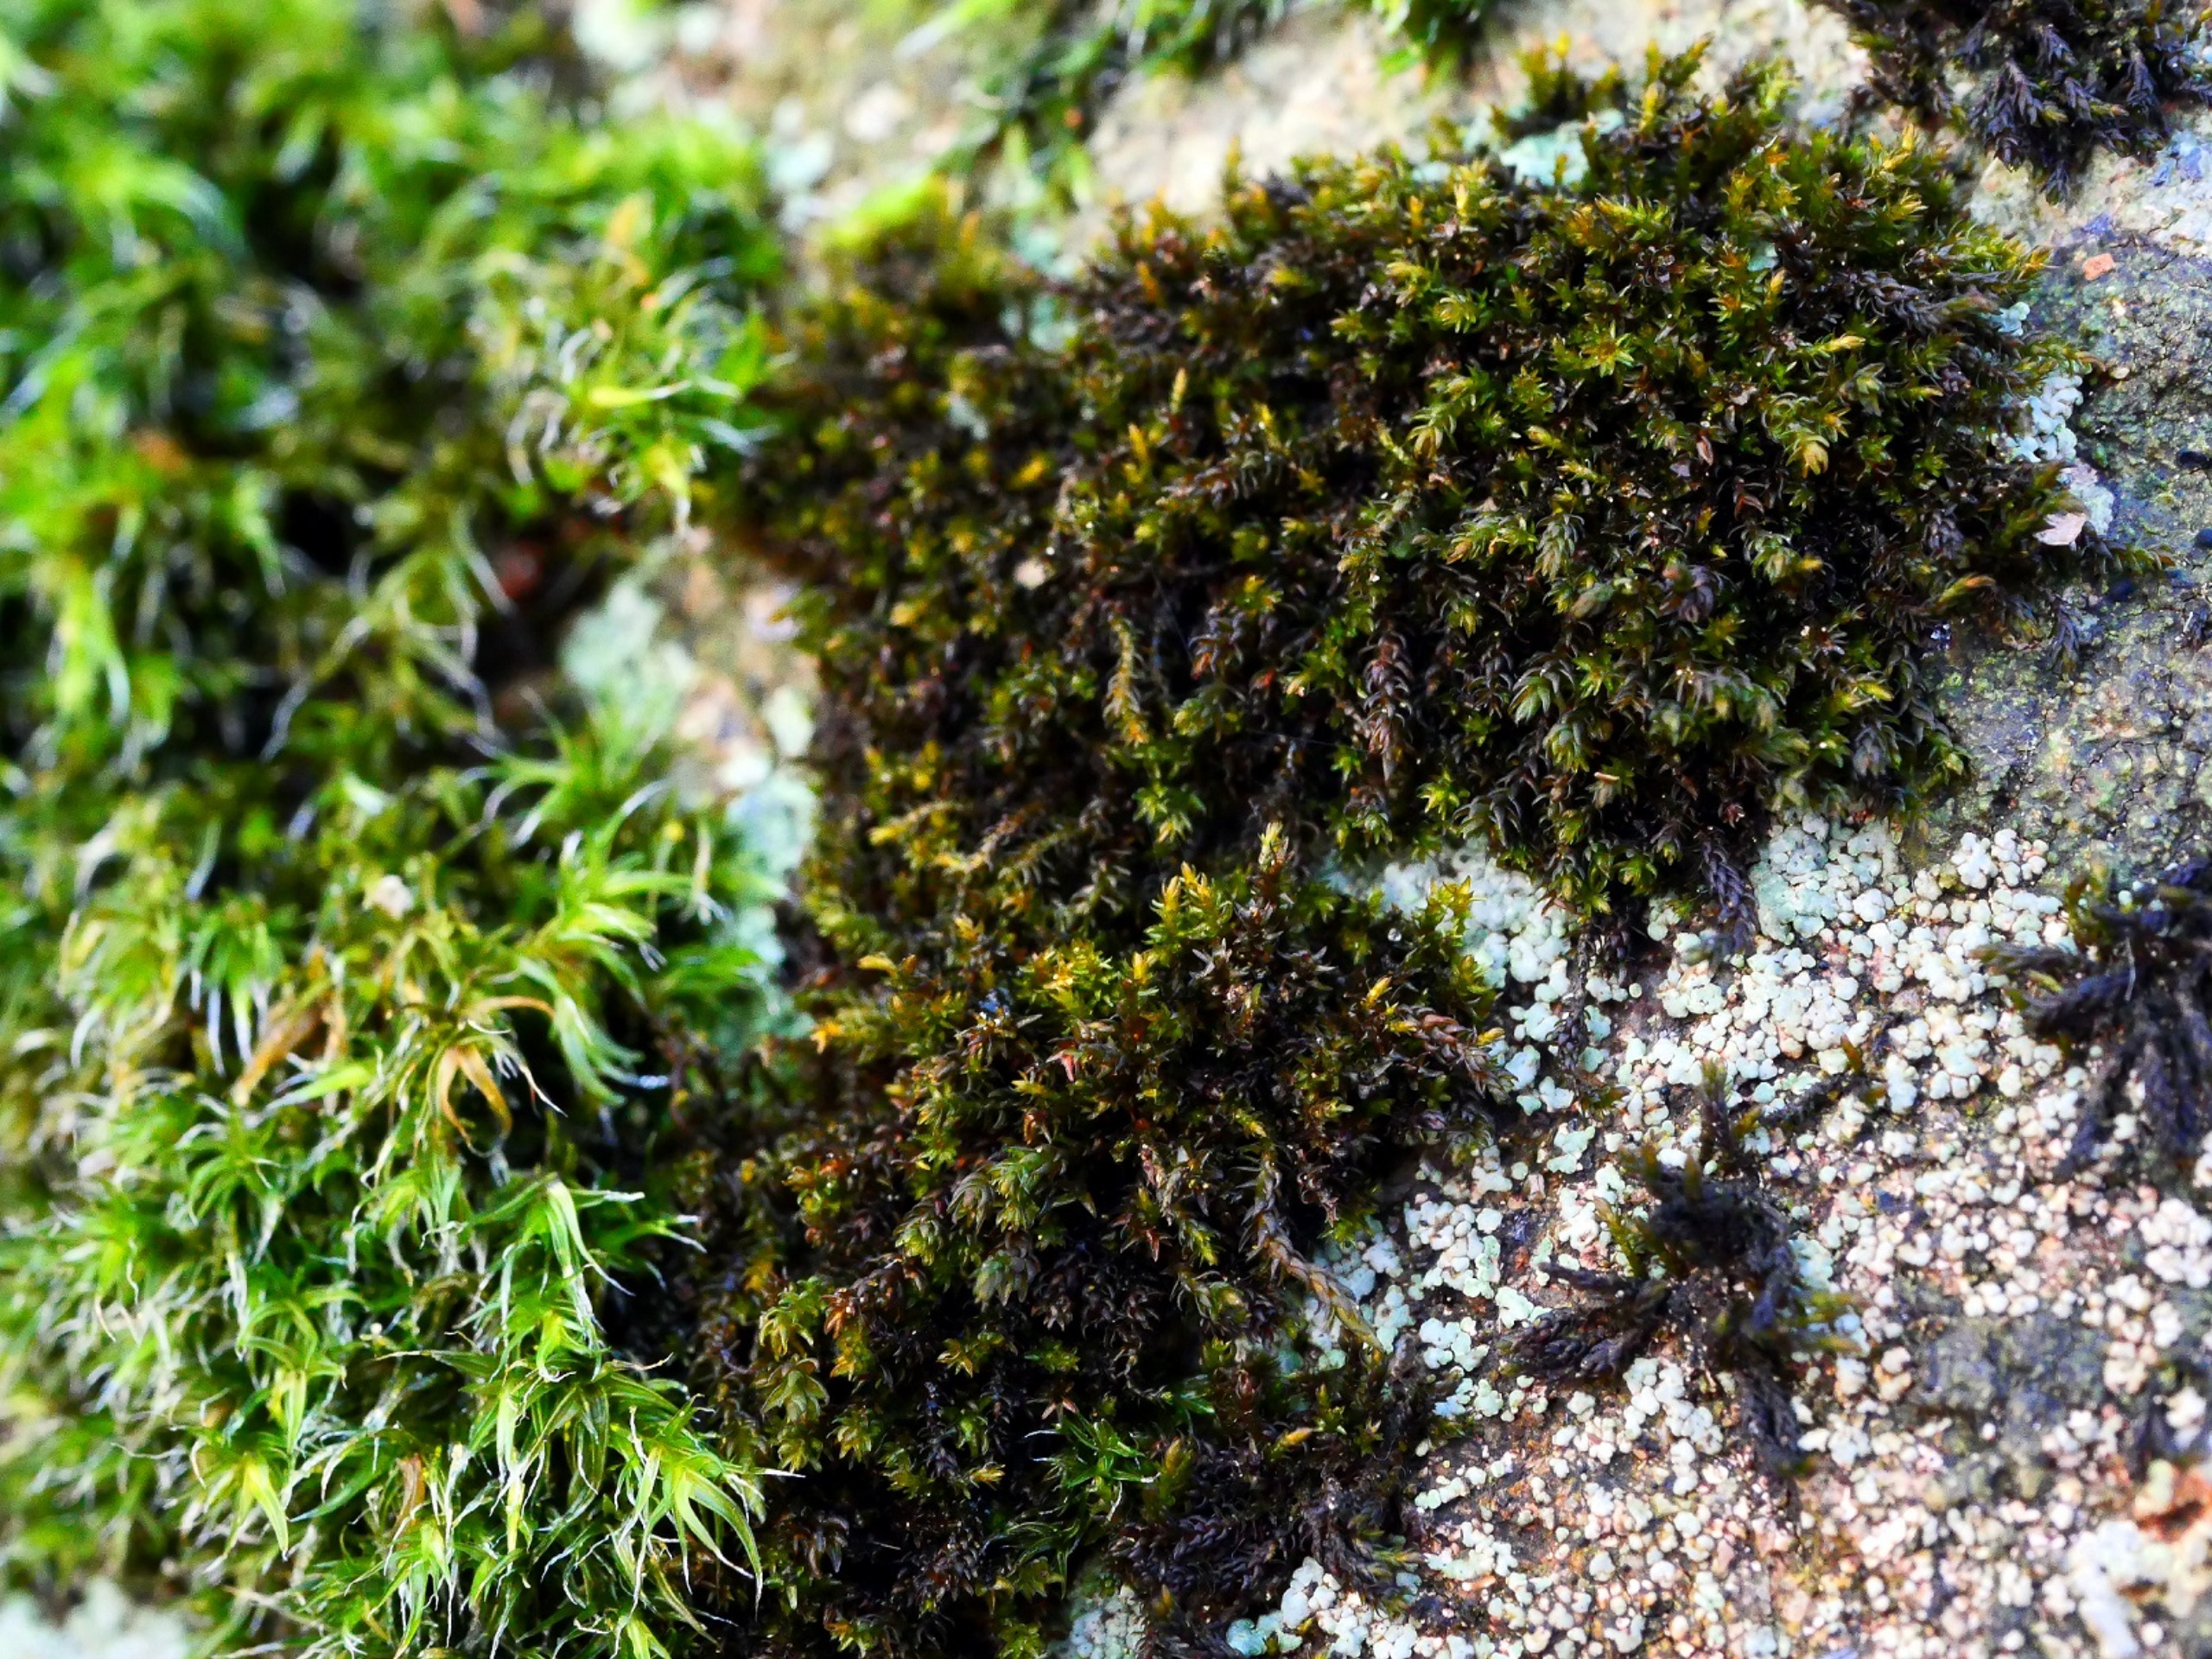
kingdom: Plantae
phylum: Bryophyta
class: Andreaeopsida
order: Andreaeales
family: Andreaeaceae
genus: Andreaea
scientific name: Andreaea rupestris
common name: Lille sortmos
